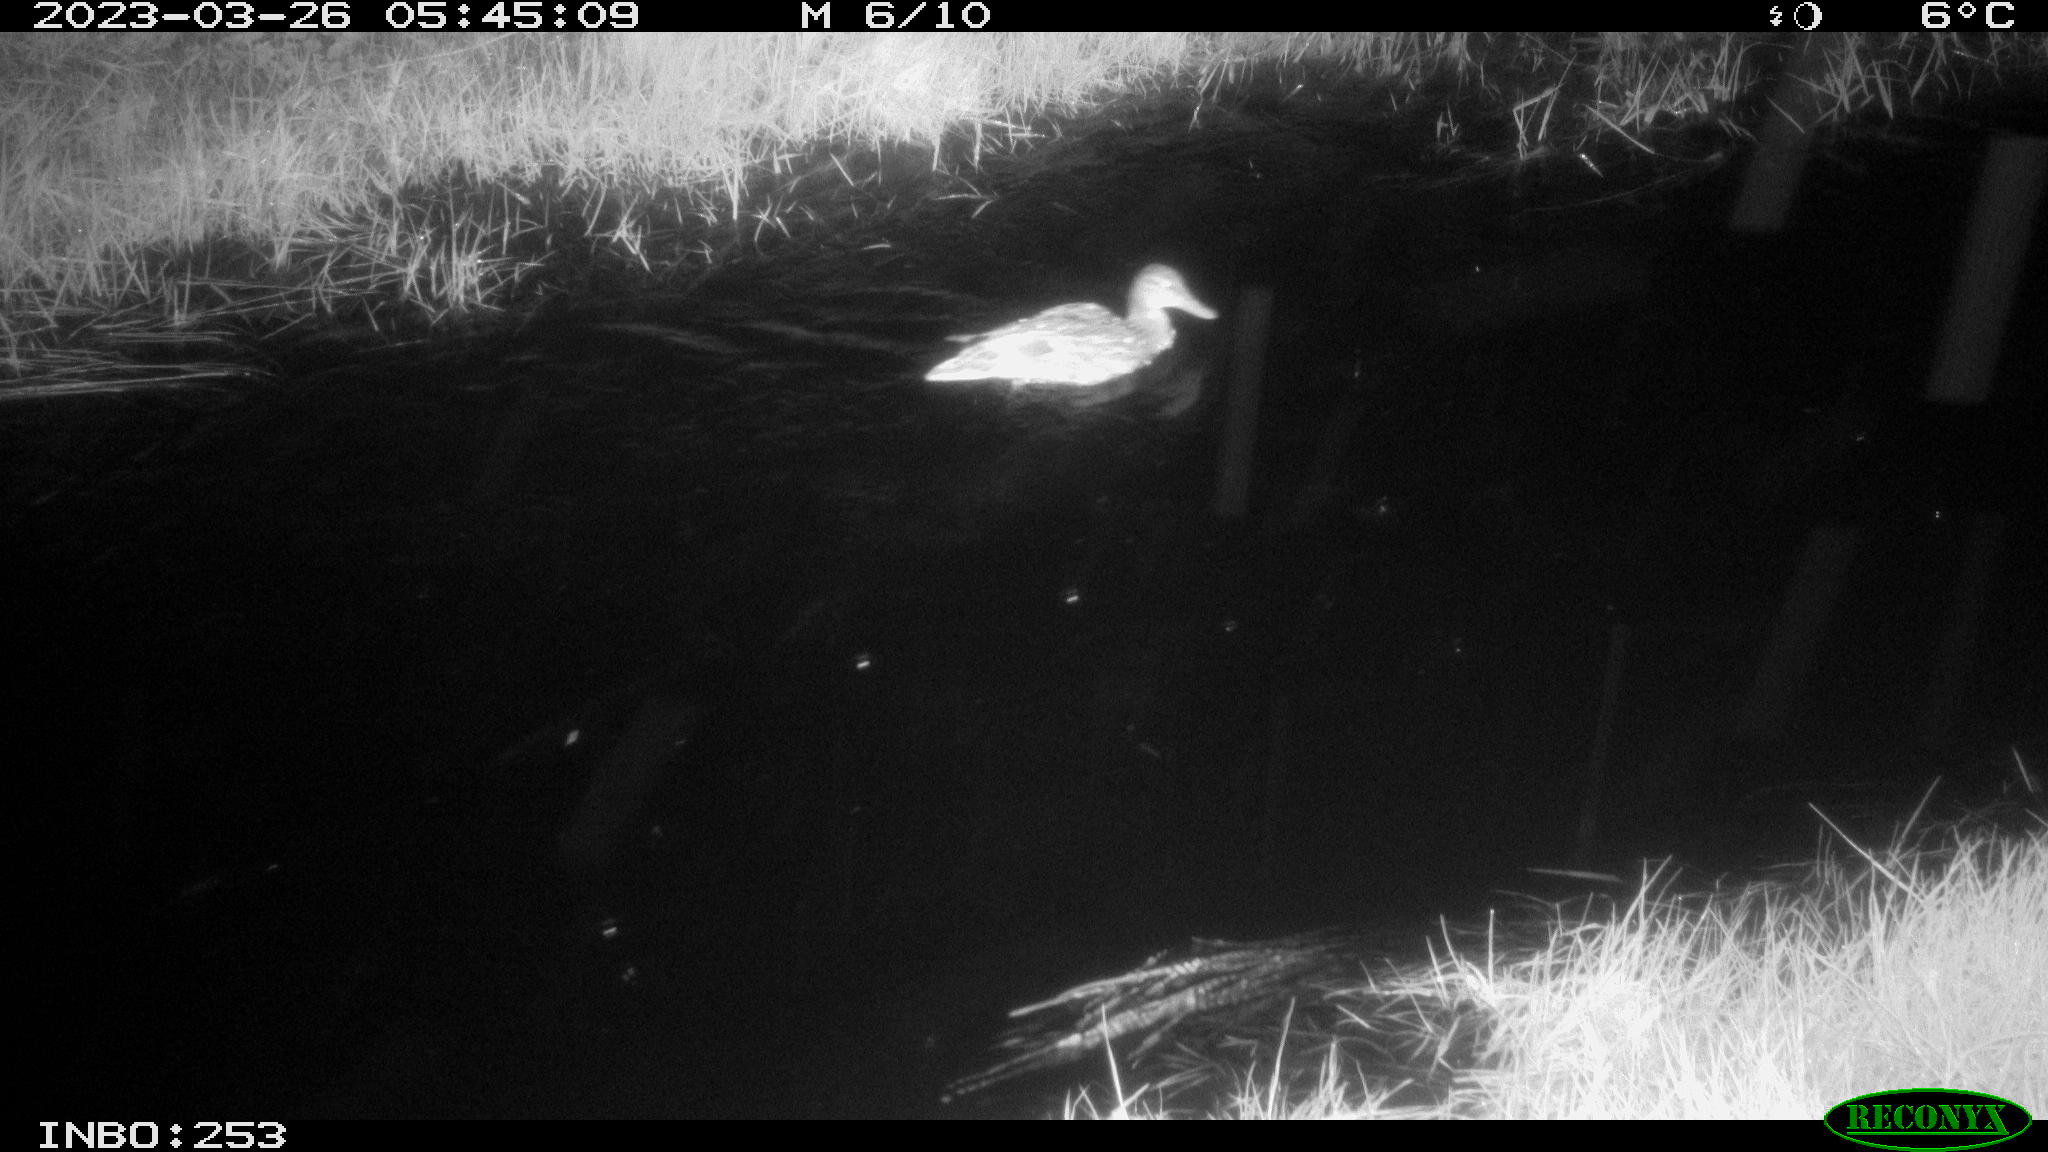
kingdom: Animalia
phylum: Chordata
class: Aves
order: Anseriformes
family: Anatidae
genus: Anas
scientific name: Anas
